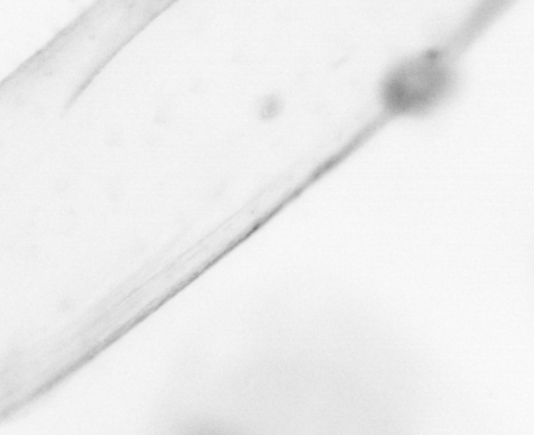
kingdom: Animalia
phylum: Arthropoda
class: Copepoda
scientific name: Copepoda
